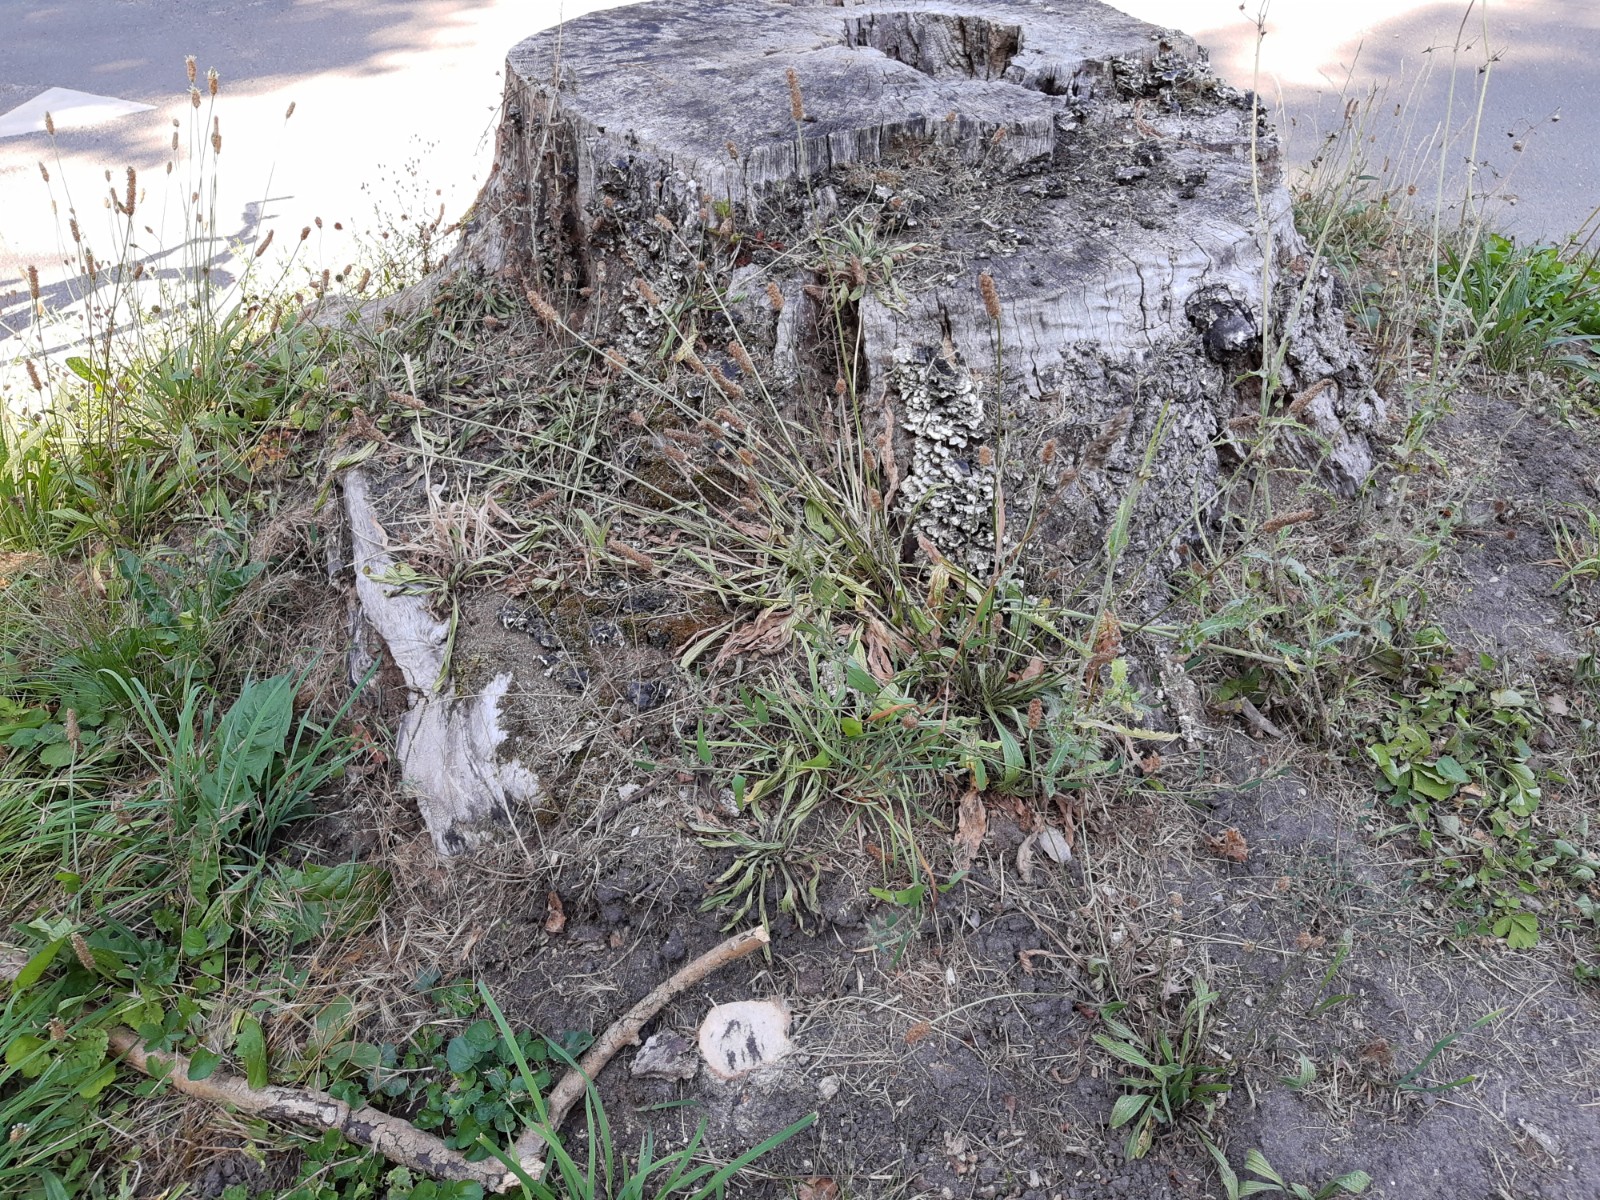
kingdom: Protozoa
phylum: Mycetozoa
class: Myxomycetes
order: Physarales
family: Physaraceae
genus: Fuligo
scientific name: Fuligo septica
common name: gul troldsmør
